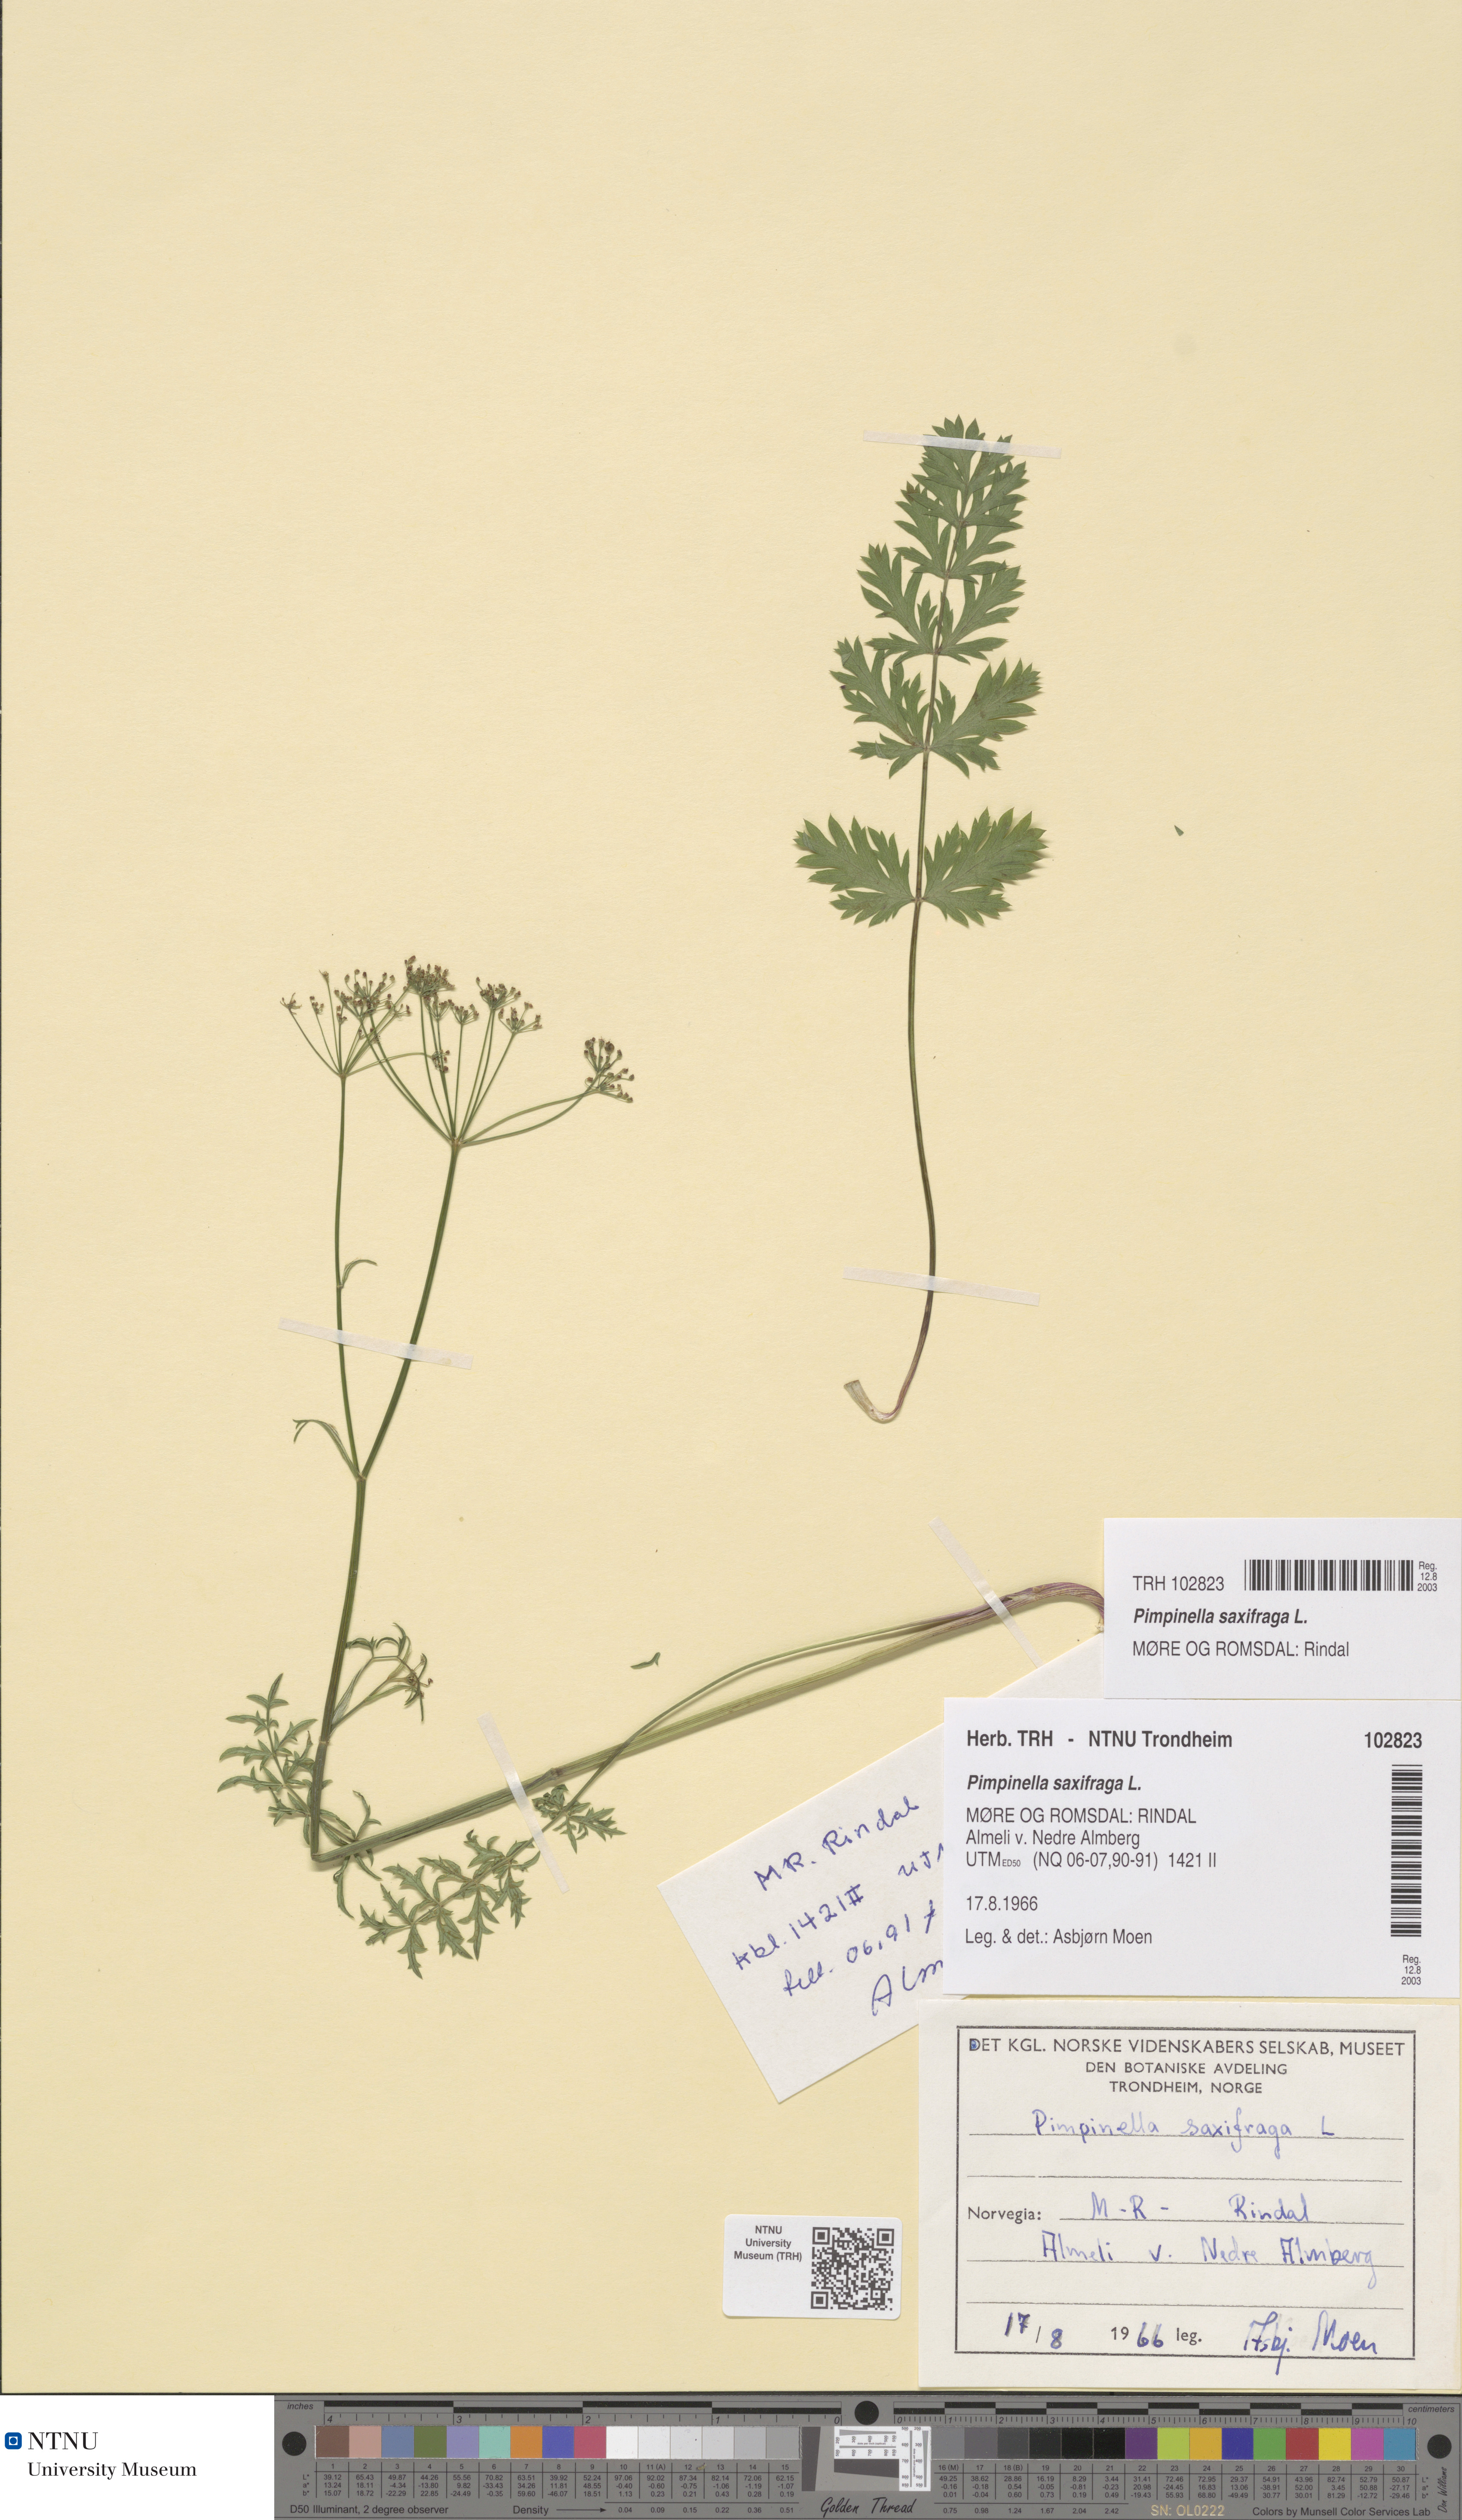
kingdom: Plantae
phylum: Tracheophyta
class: Magnoliopsida
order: Apiales
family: Apiaceae
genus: Pimpinella
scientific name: Pimpinella saxifraga
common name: Burnet-saxifrage
